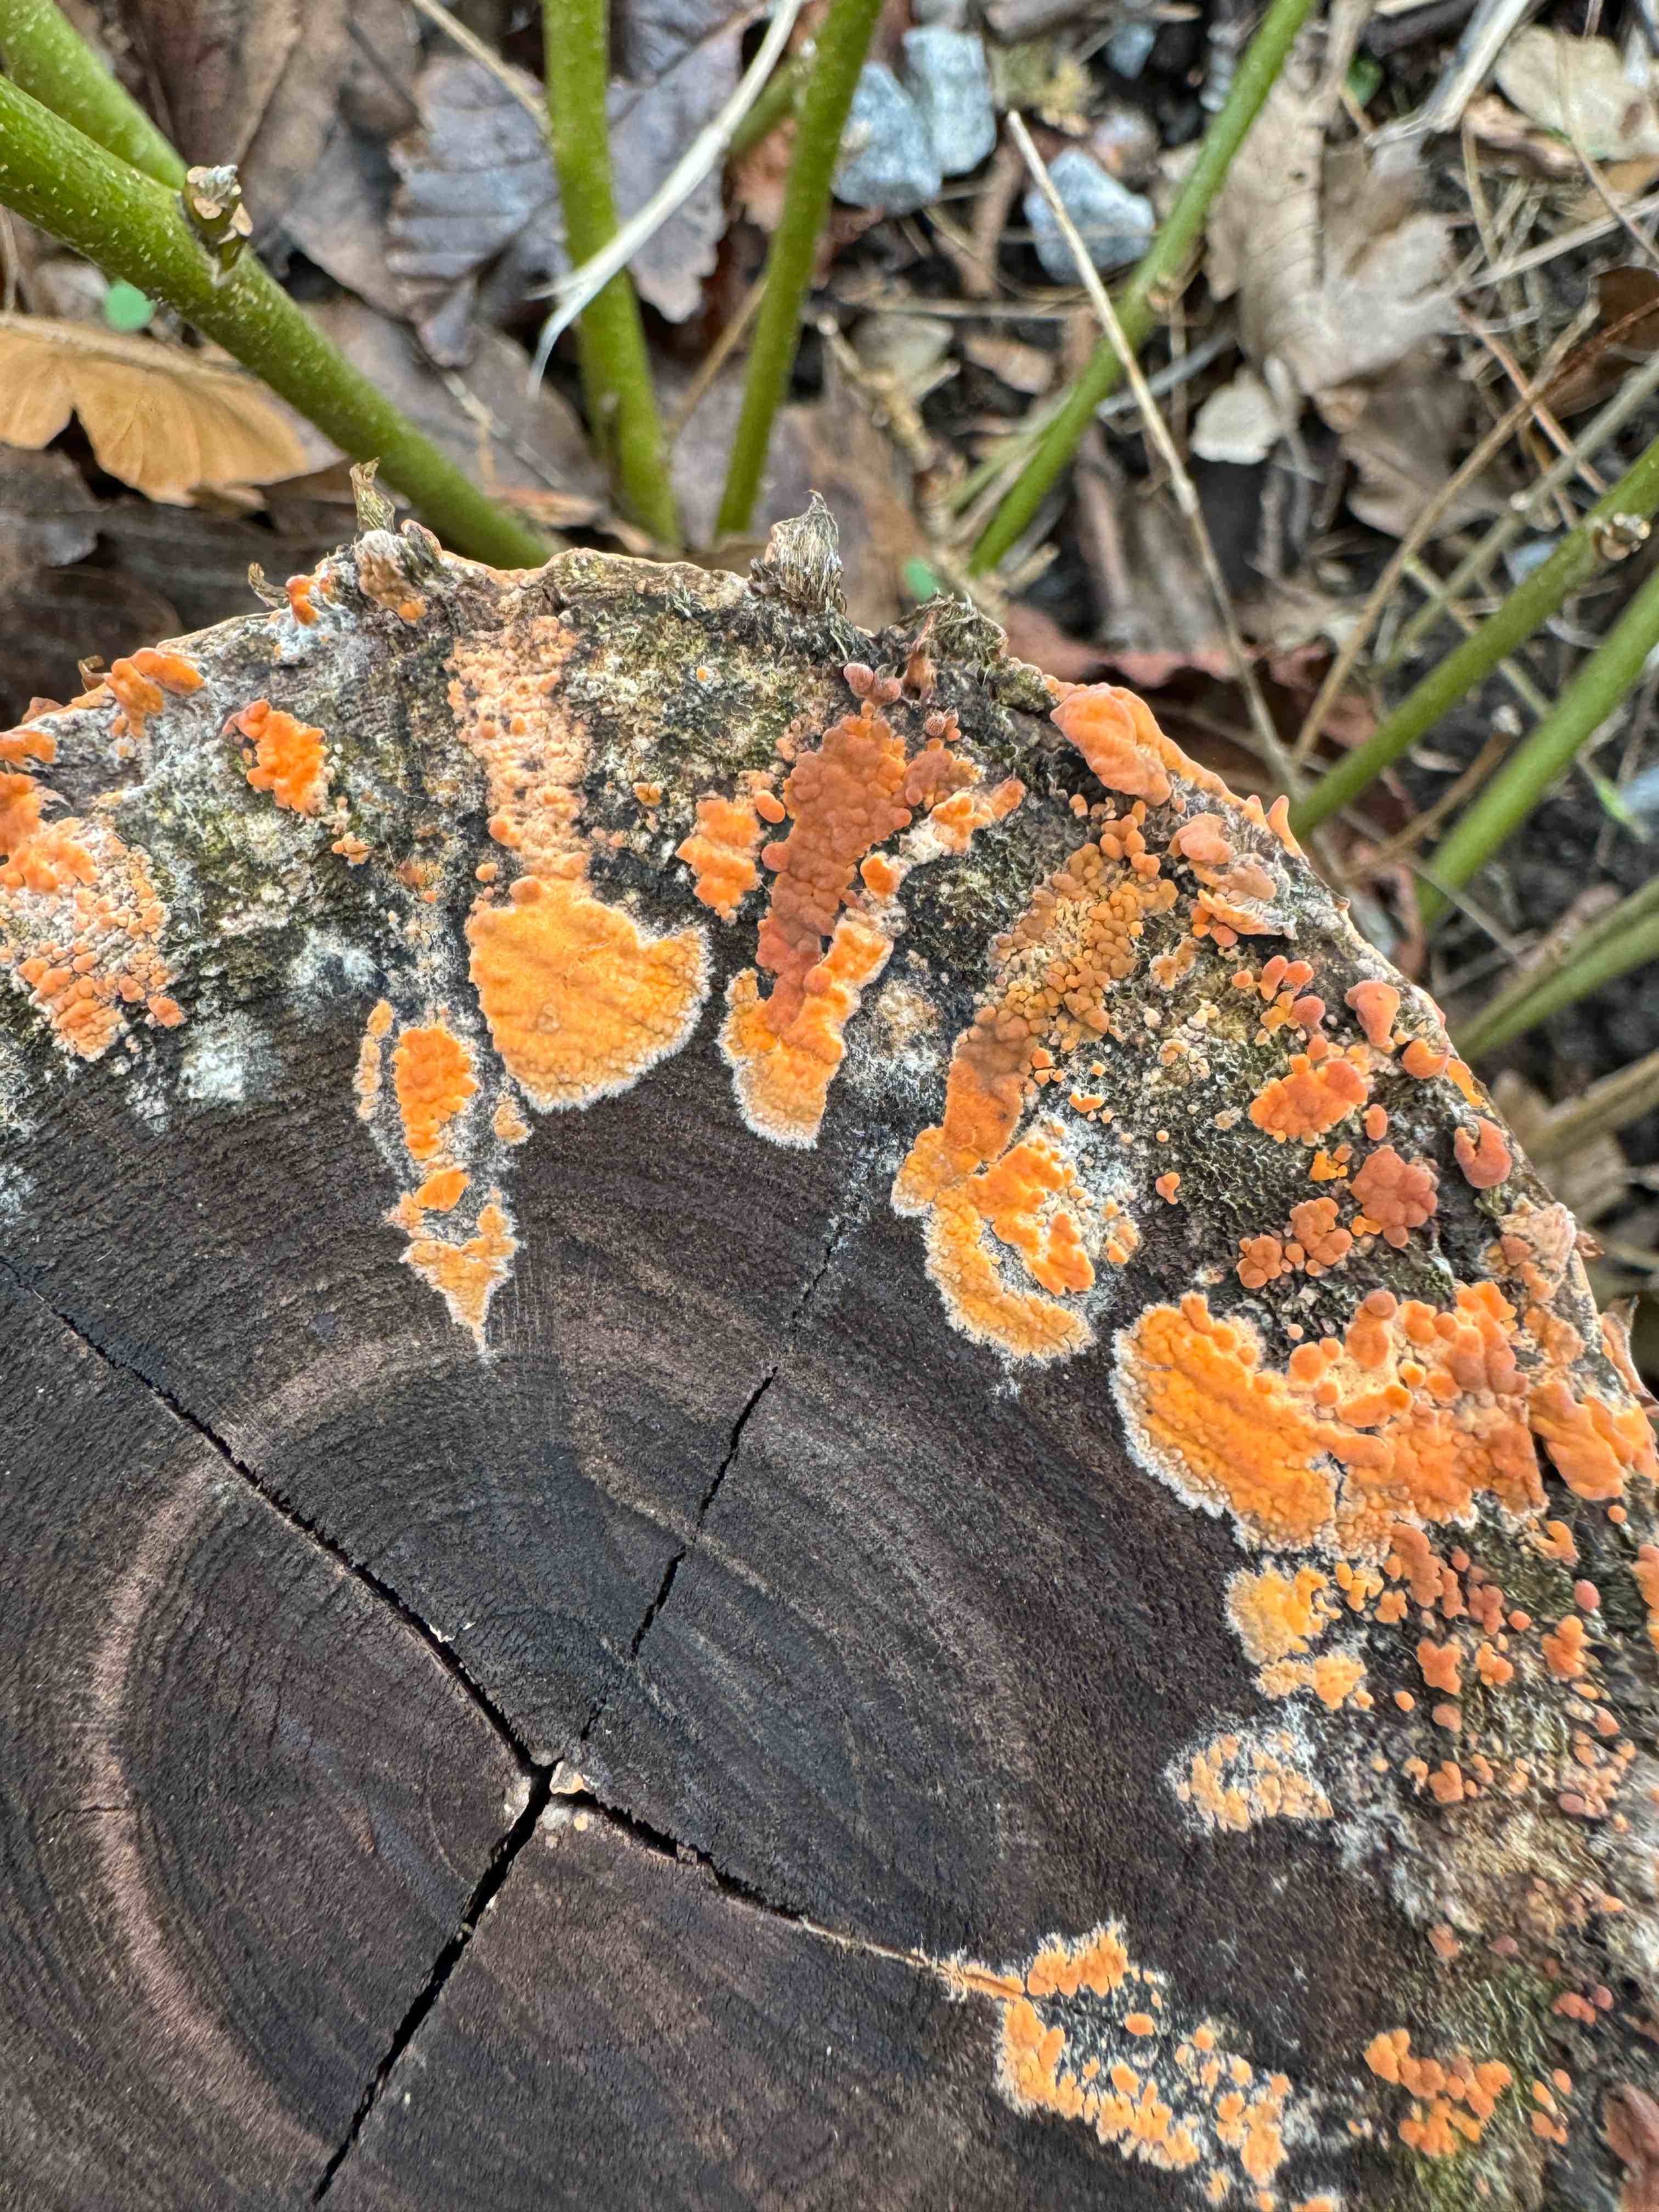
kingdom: Fungi
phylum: Basidiomycota
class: Agaricomycetes
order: Russulales
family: Peniophoraceae
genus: Peniophora
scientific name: Peniophora incarnata
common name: laksefarvet voksskind
